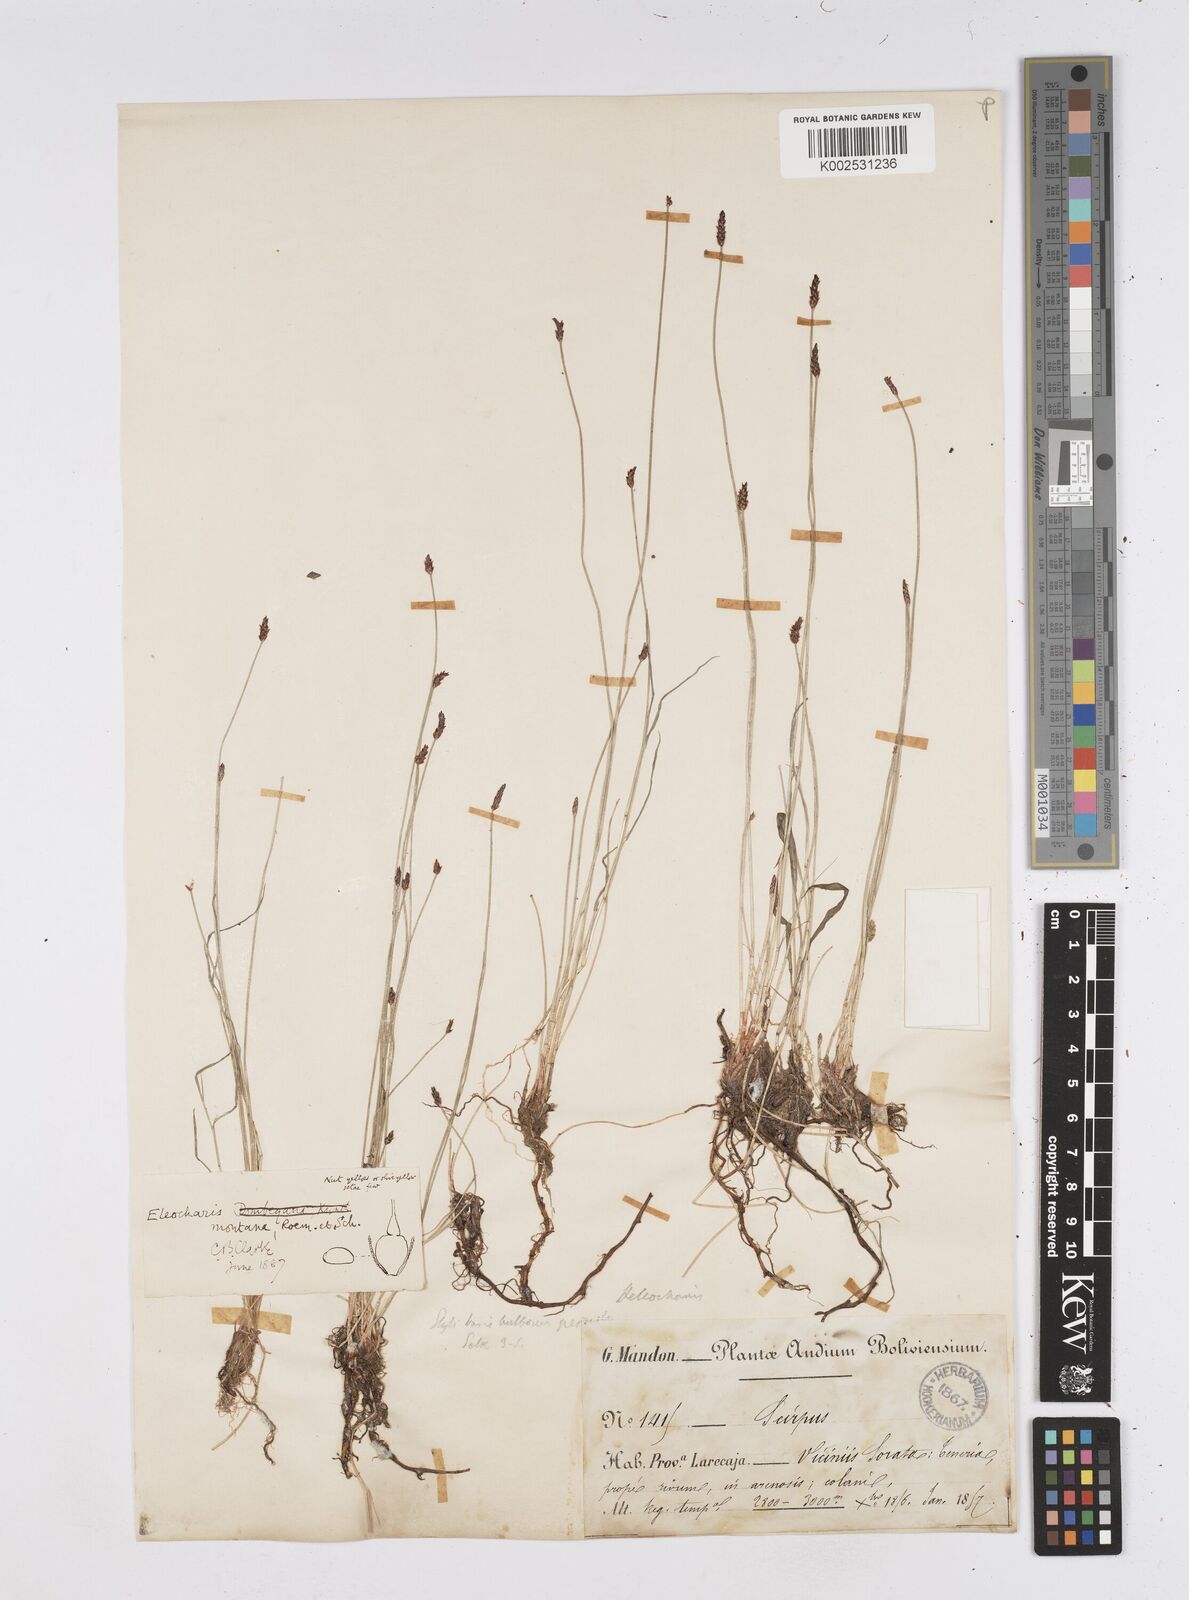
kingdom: Plantae
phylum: Tracheophyta
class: Liliopsida
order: Poales
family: Cyperaceae
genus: Eleocharis
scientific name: Eleocharis montana
